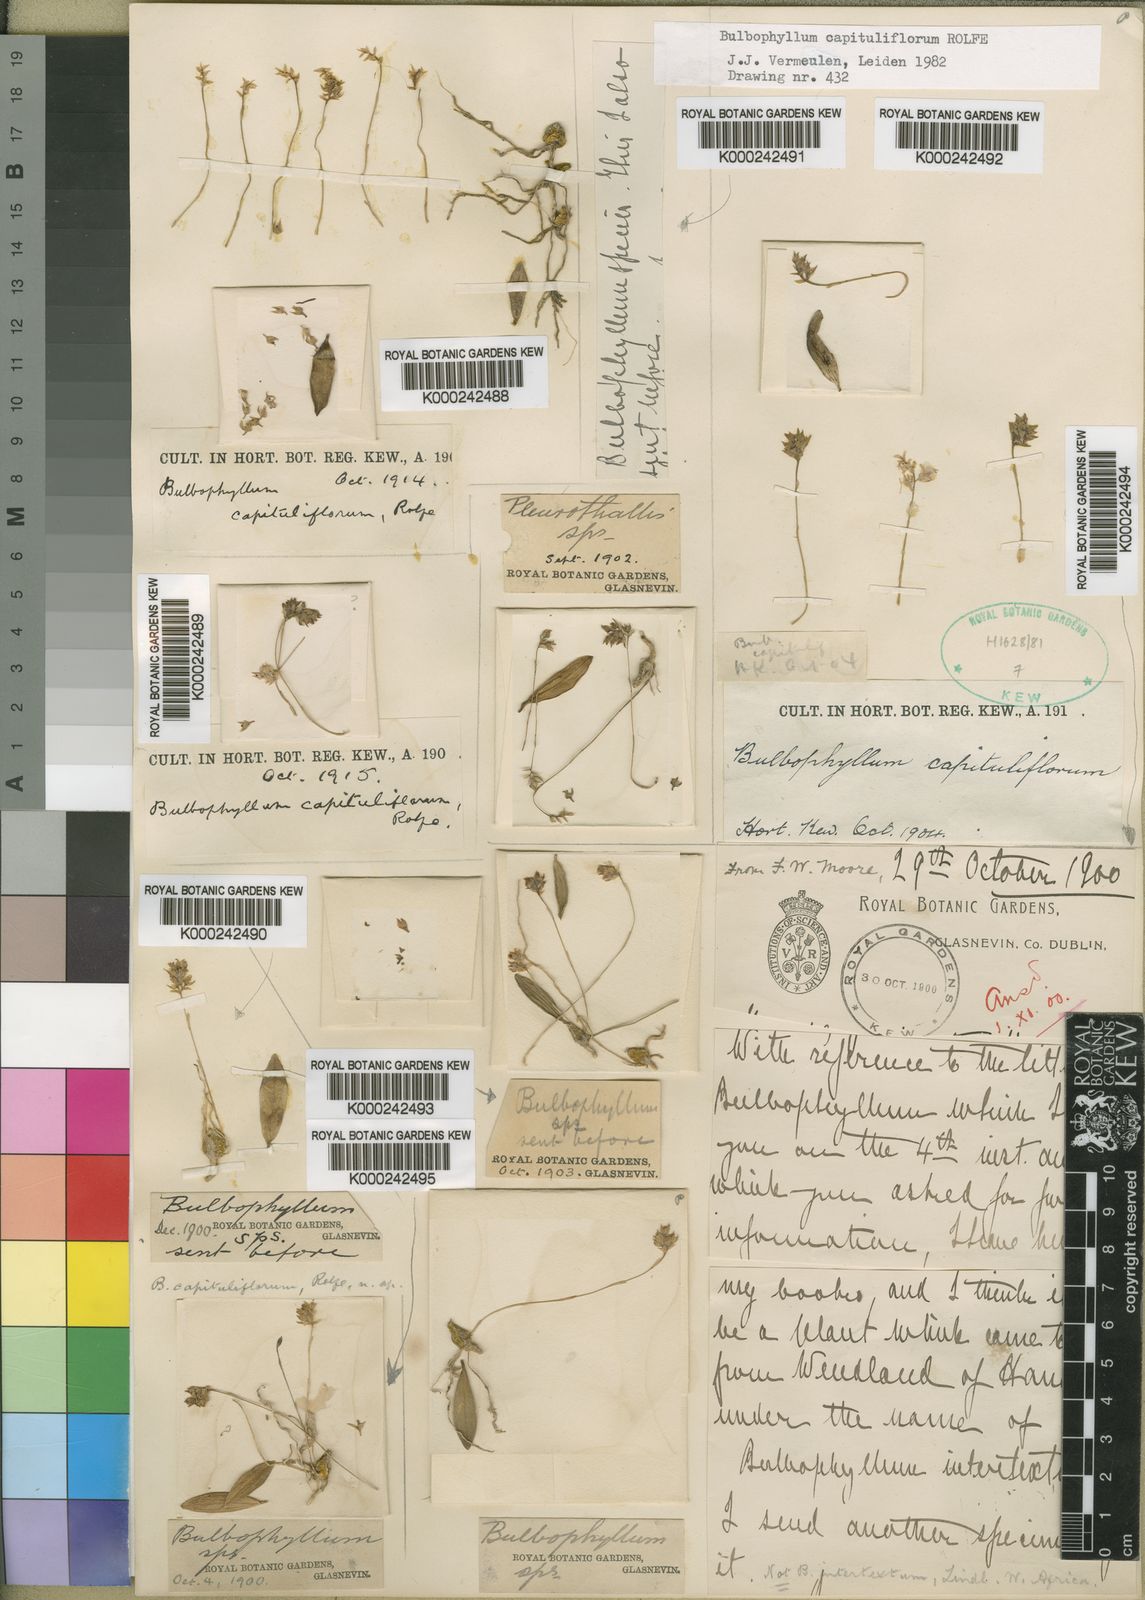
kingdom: Plantae
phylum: Tracheophyta
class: Liliopsida
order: Asparagales
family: Orchidaceae
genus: Bulbophyllum
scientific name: Bulbophyllum capituliflorum
